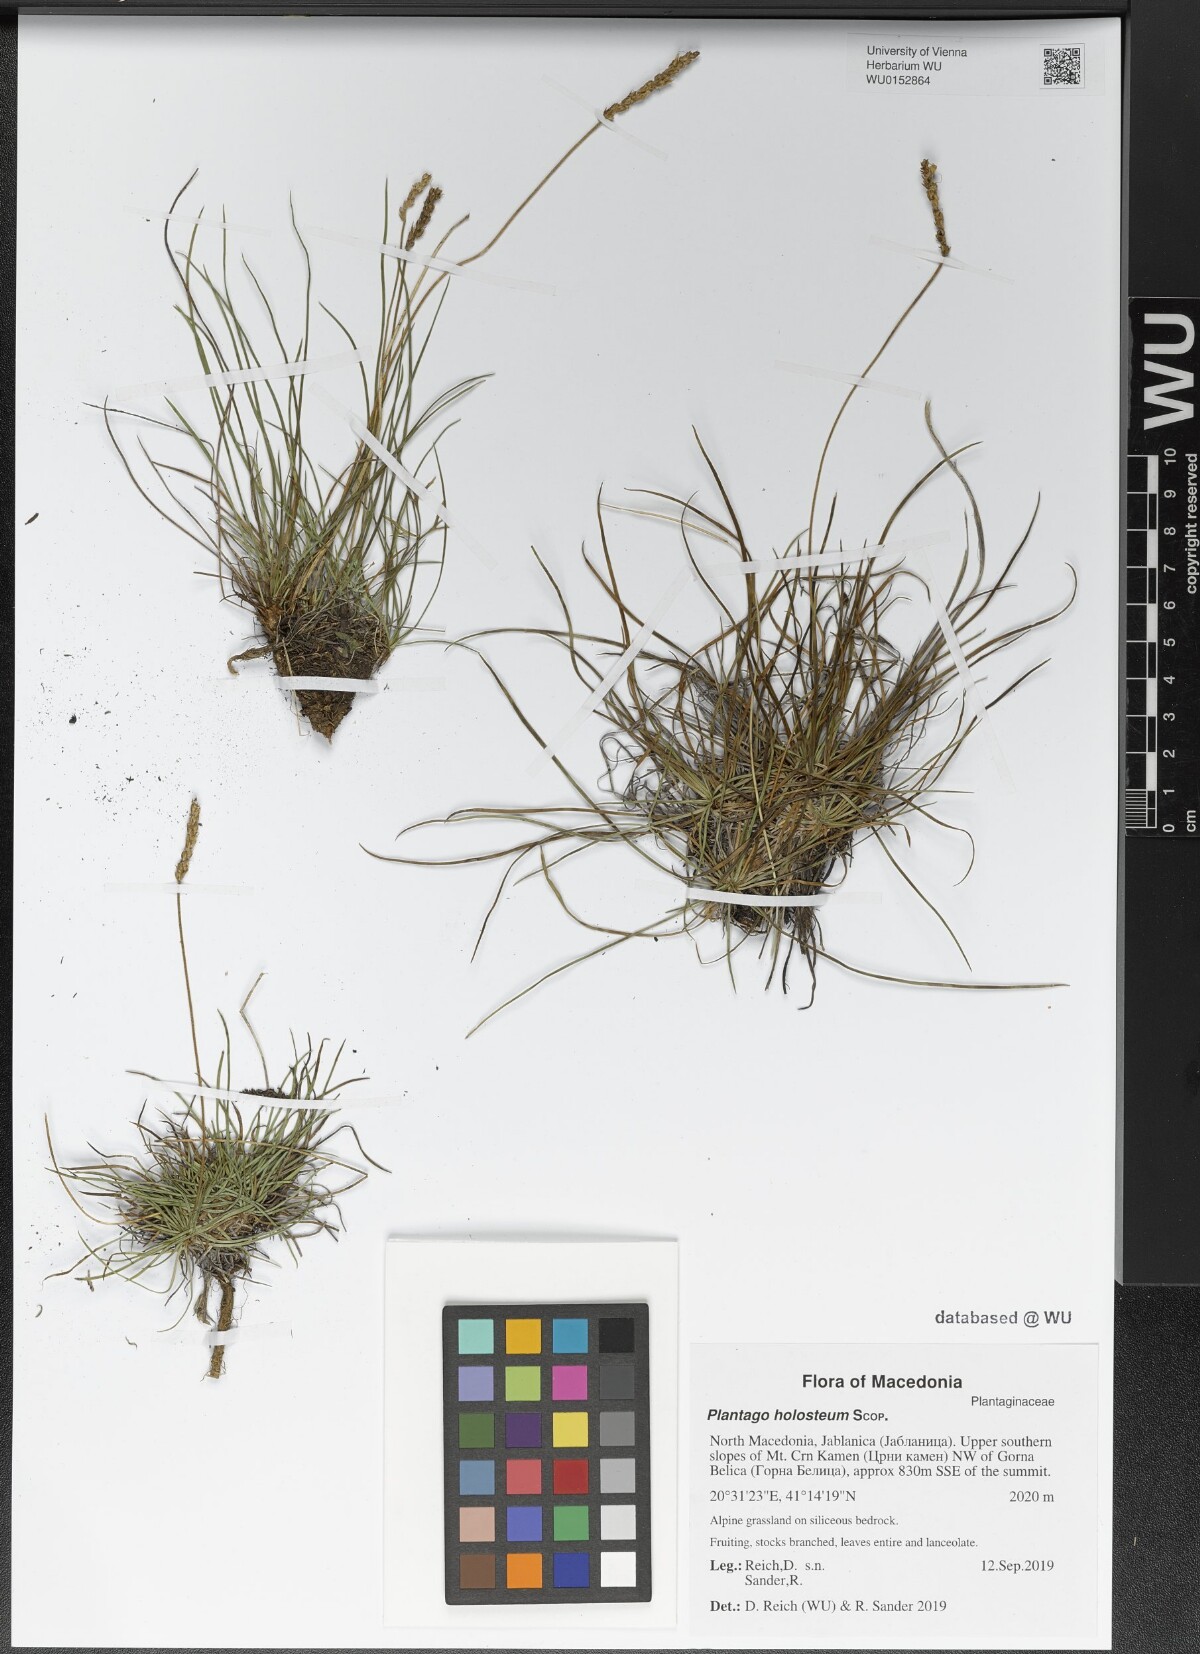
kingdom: Plantae
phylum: Tracheophyta
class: Magnoliopsida
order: Lamiales
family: Plantaginaceae
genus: Plantago
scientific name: Plantago subulata
